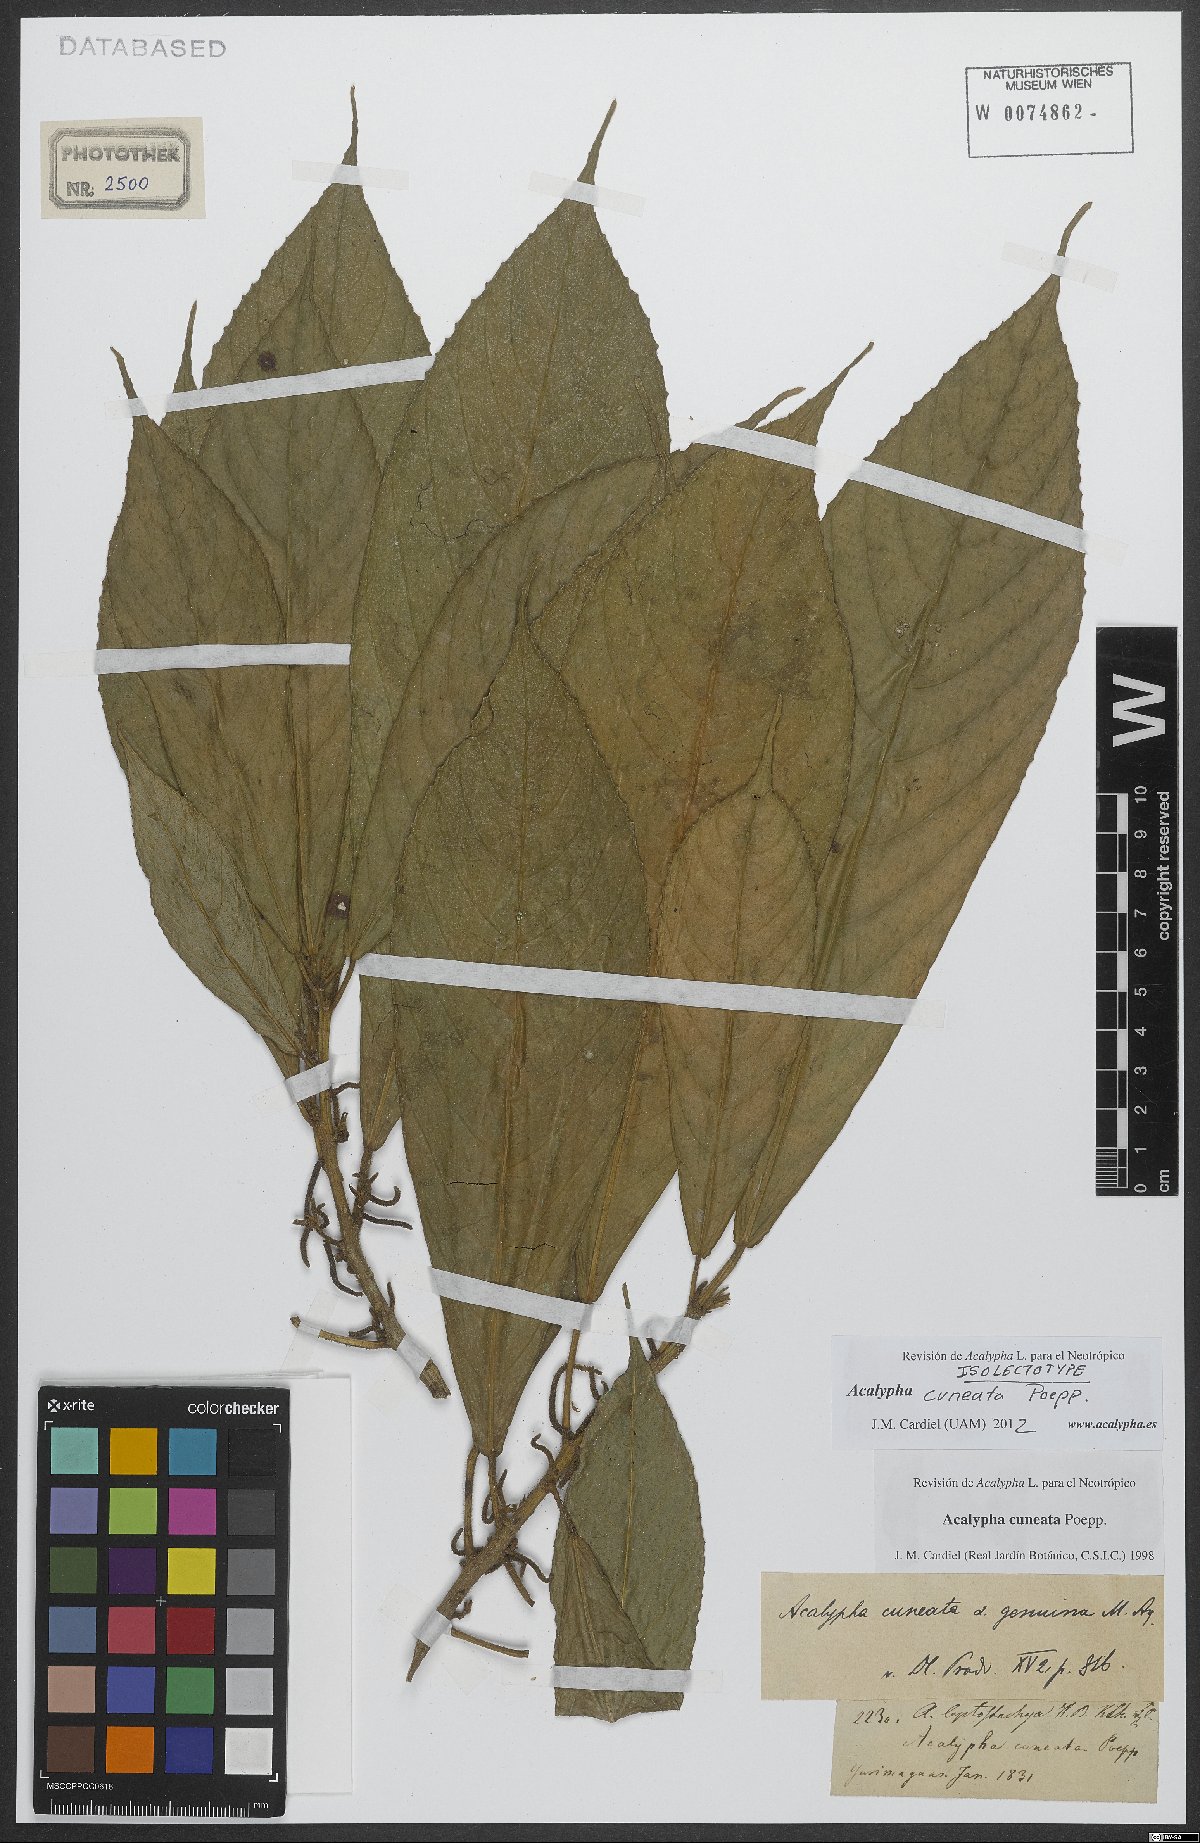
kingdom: Plantae
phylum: Tracheophyta
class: Magnoliopsida
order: Malpighiales
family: Euphorbiaceae
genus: Acalypha
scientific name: Acalypha cuneata
